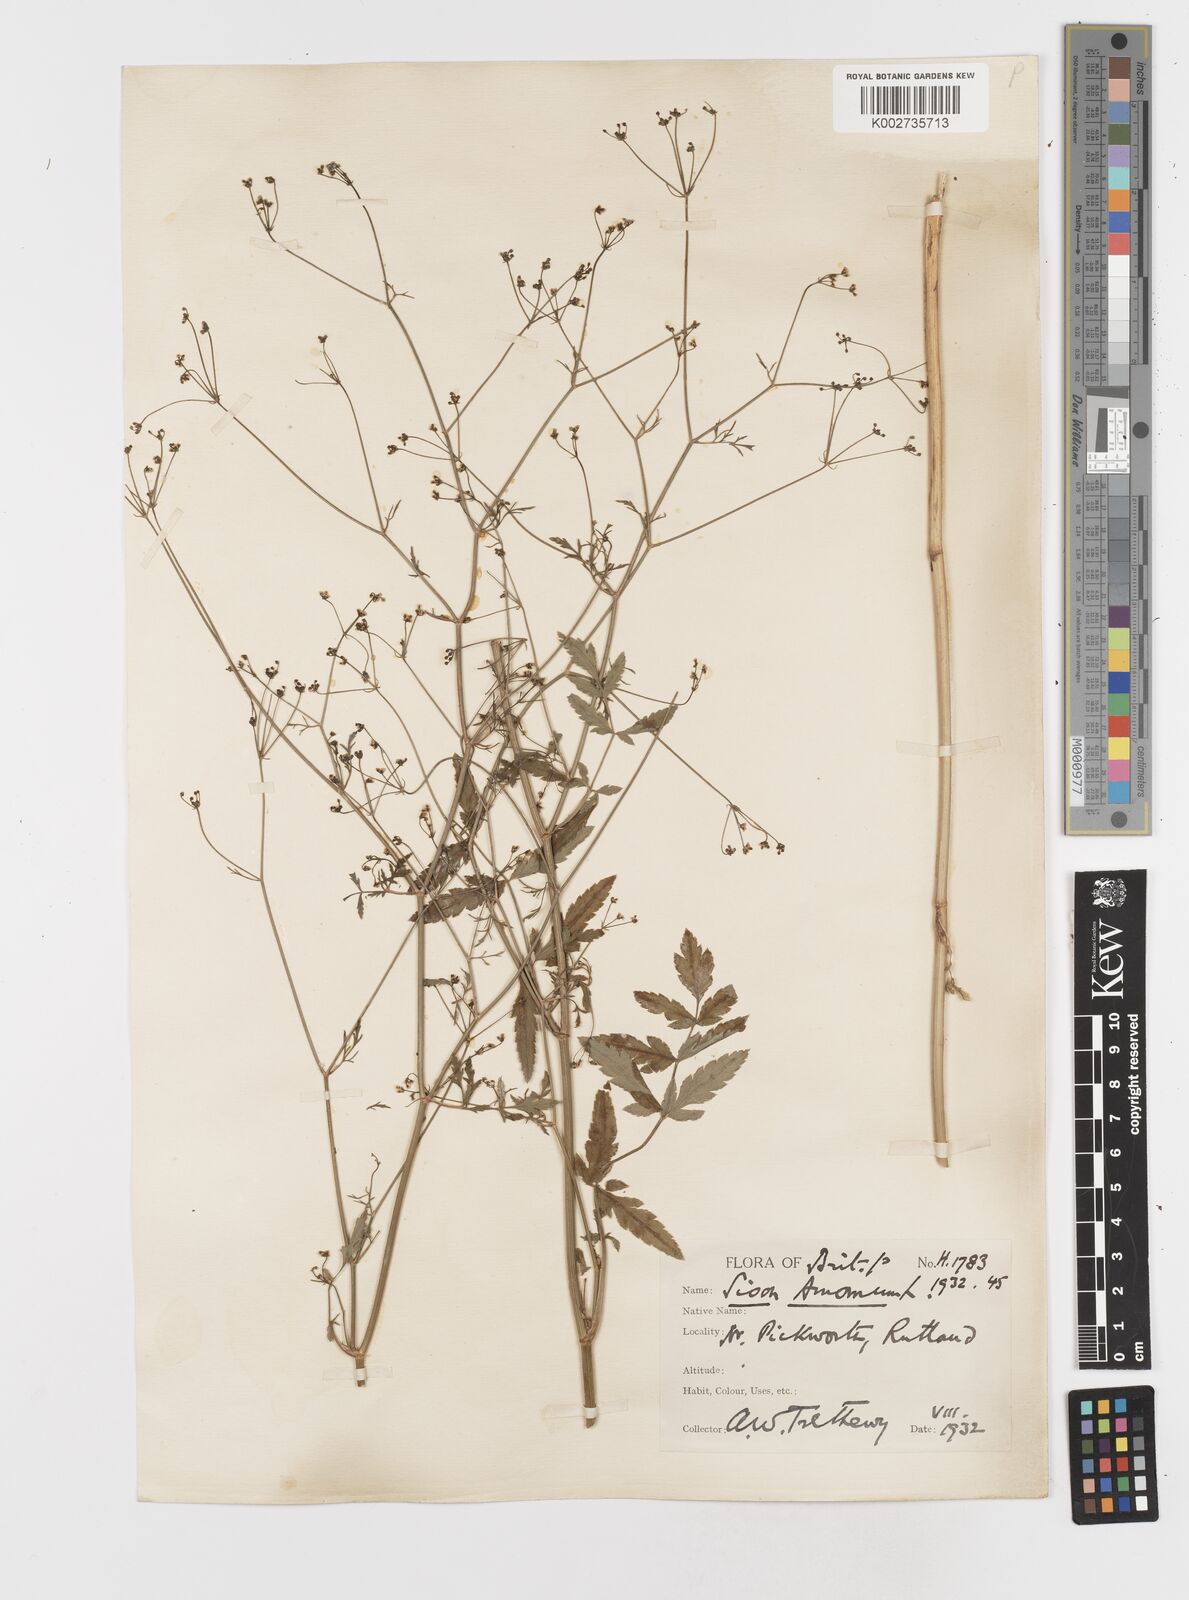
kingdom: Plantae
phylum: Tracheophyta
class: Magnoliopsida
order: Apiales
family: Apiaceae
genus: Sison
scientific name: Sison amomum
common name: Stone-parsley
